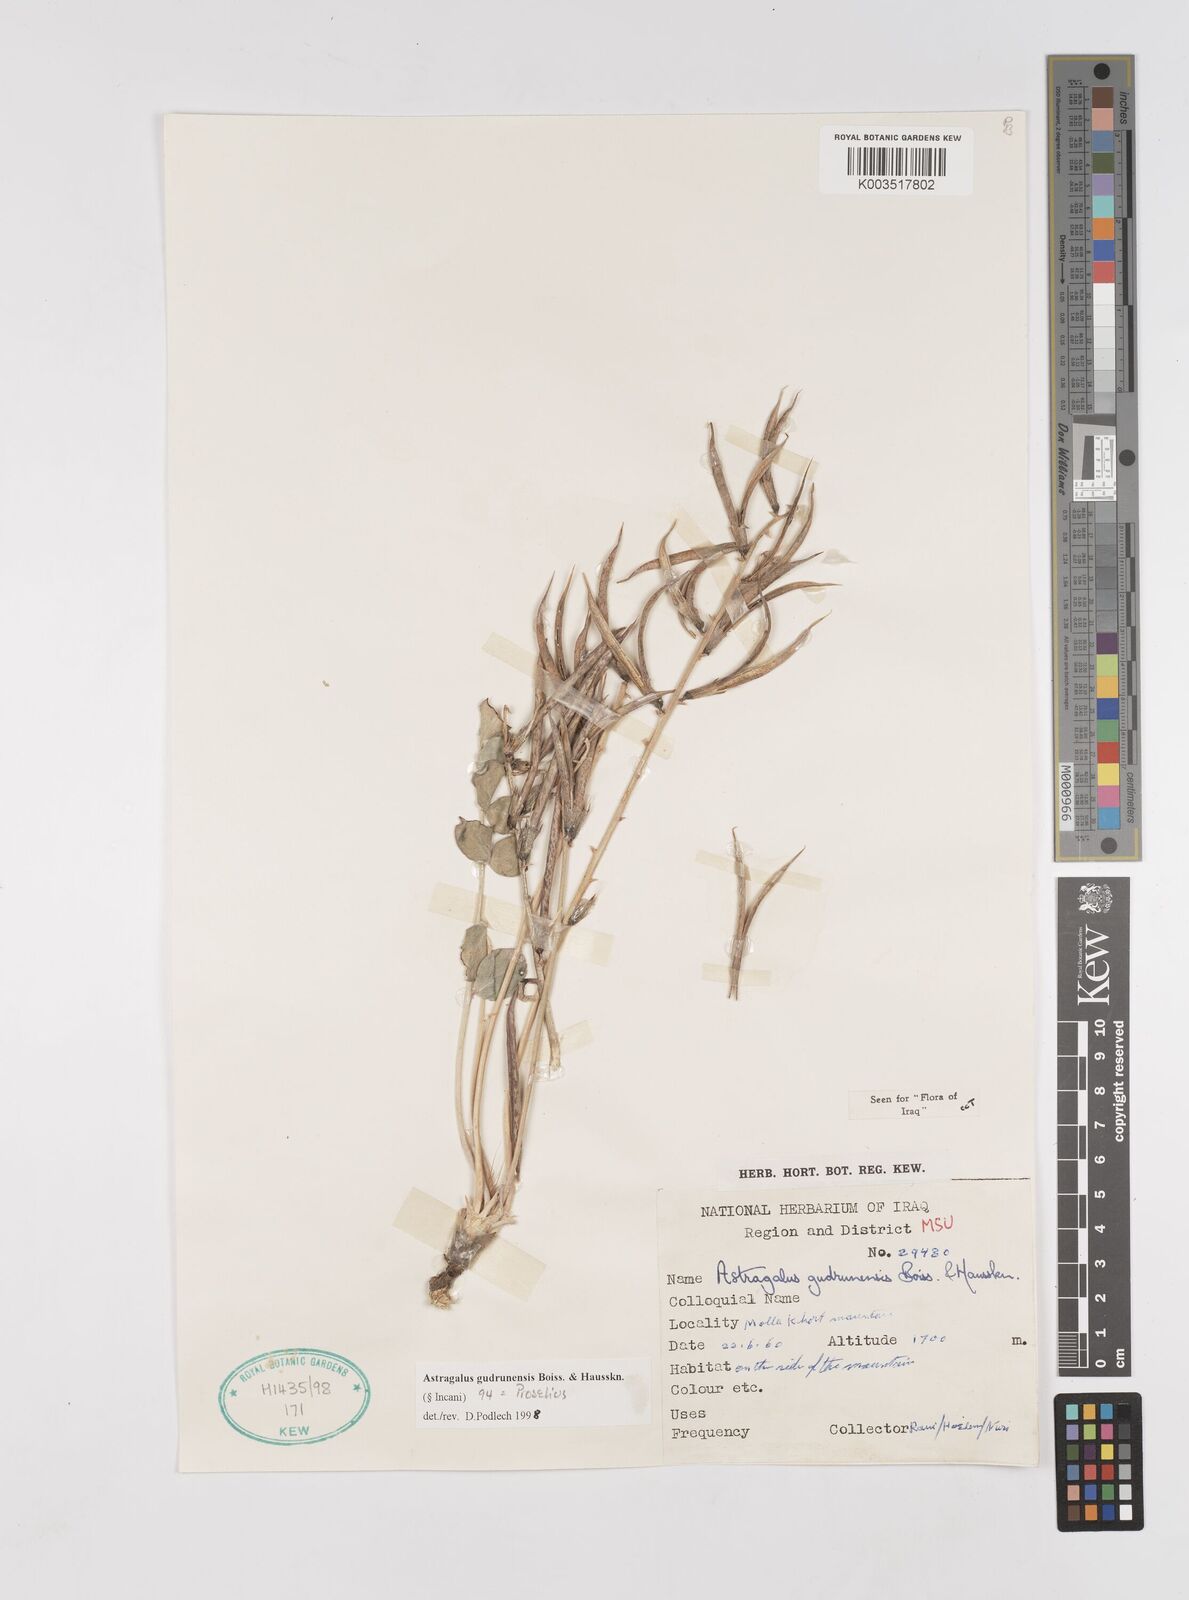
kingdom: Plantae
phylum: Tracheophyta
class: Magnoliopsida
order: Fabales
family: Fabaceae
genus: Astragalus
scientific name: Astragalus gudrunensis
